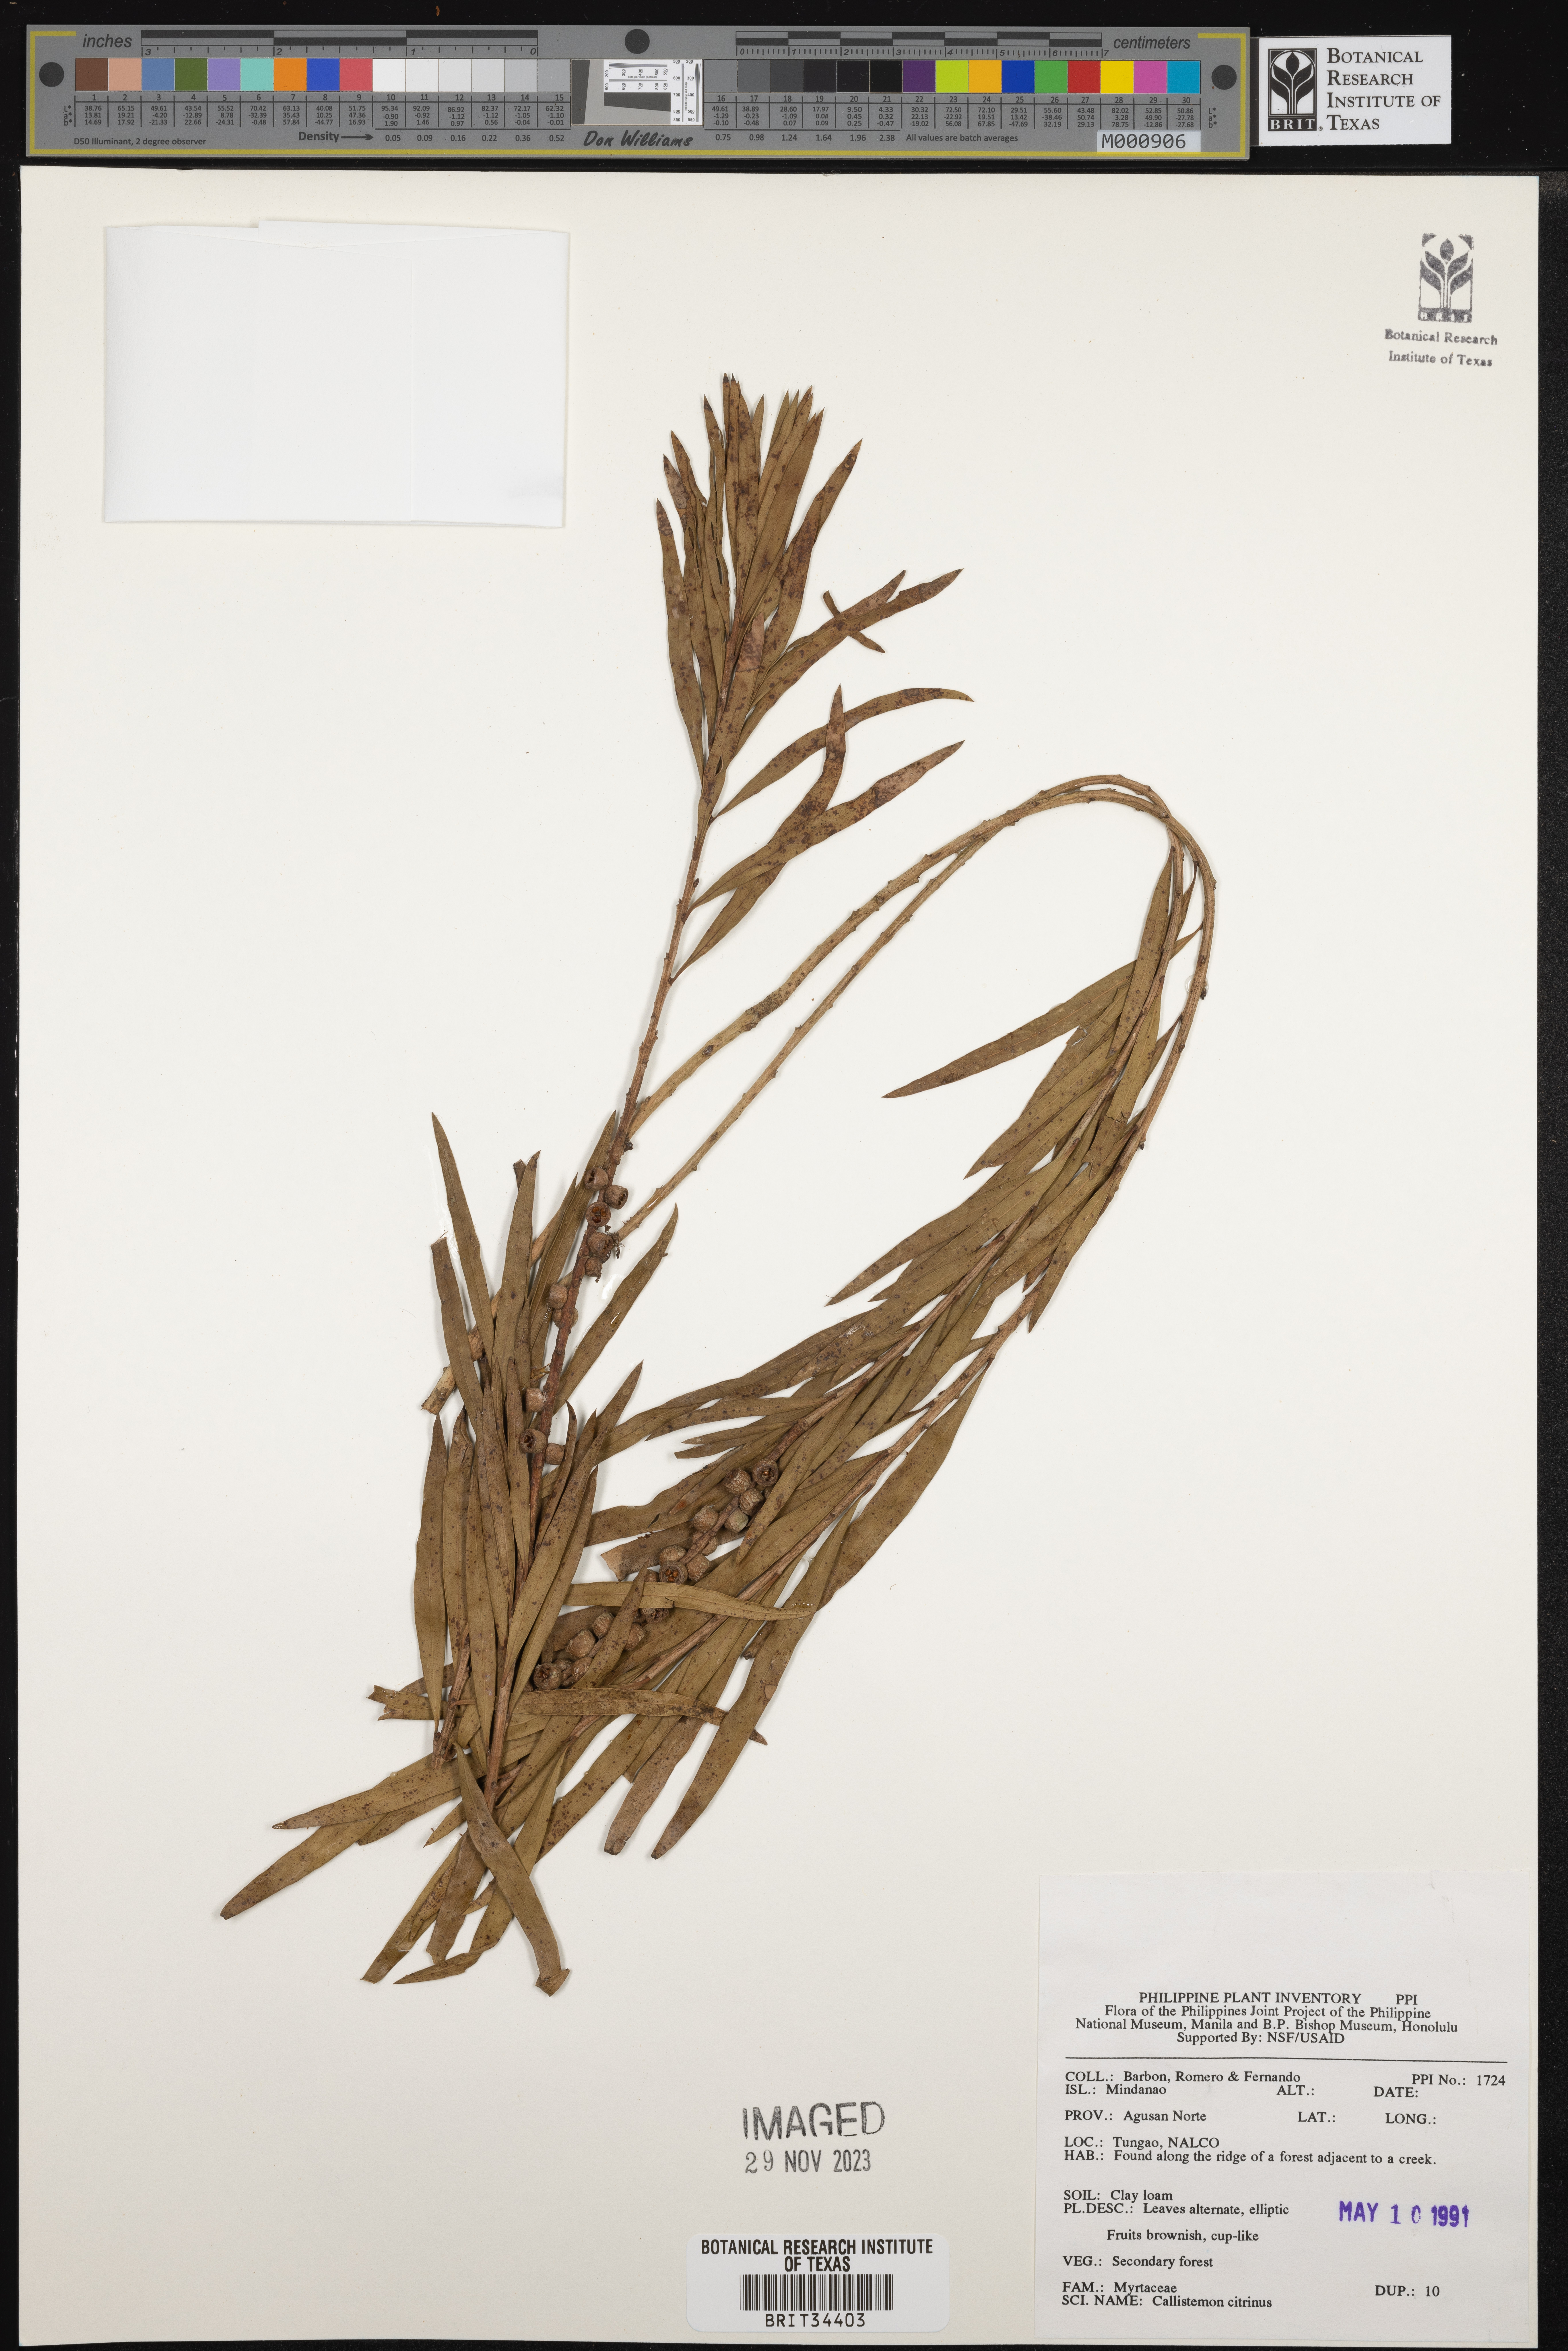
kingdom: Plantae
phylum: Tracheophyta
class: Magnoliopsida
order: Myrtales
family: Myrtaceae
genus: Callistemon
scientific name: Callistemon citrinus
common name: Crimson bottlebrush
